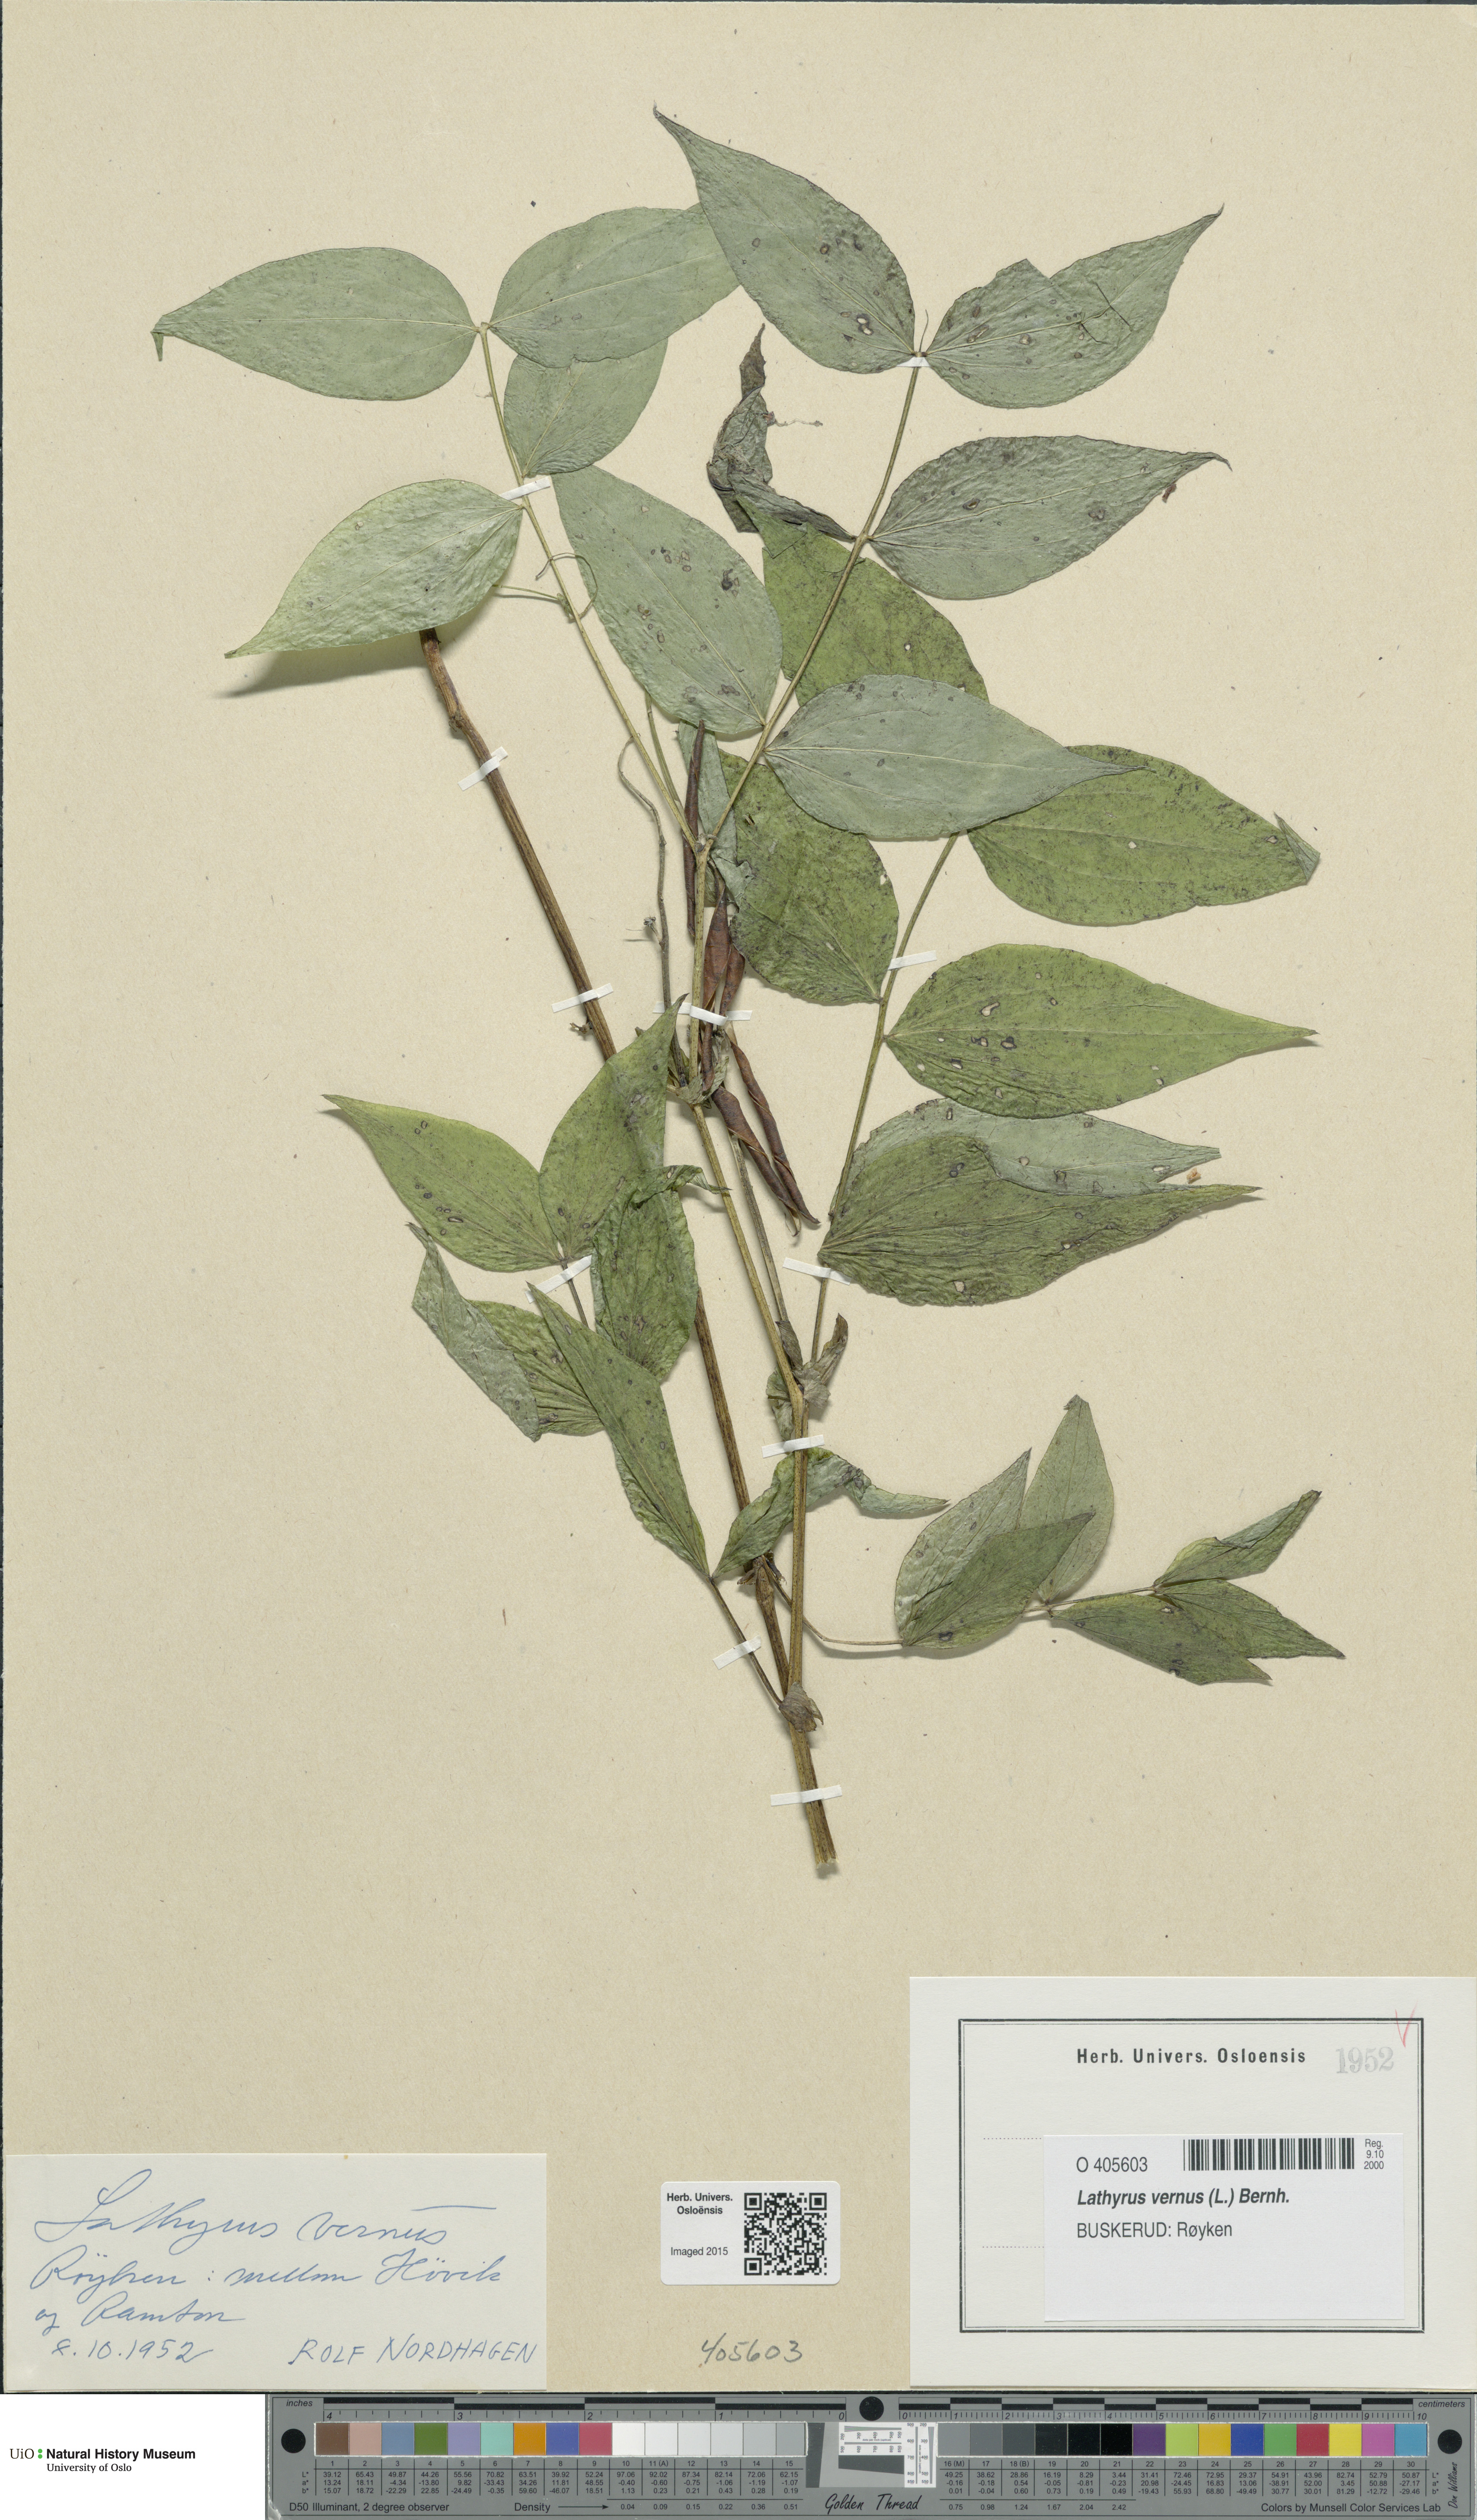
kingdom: Plantae
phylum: Tracheophyta
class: Magnoliopsida
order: Fabales
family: Fabaceae
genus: Lathyrus
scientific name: Lathyrus vernus
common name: Spring pea
